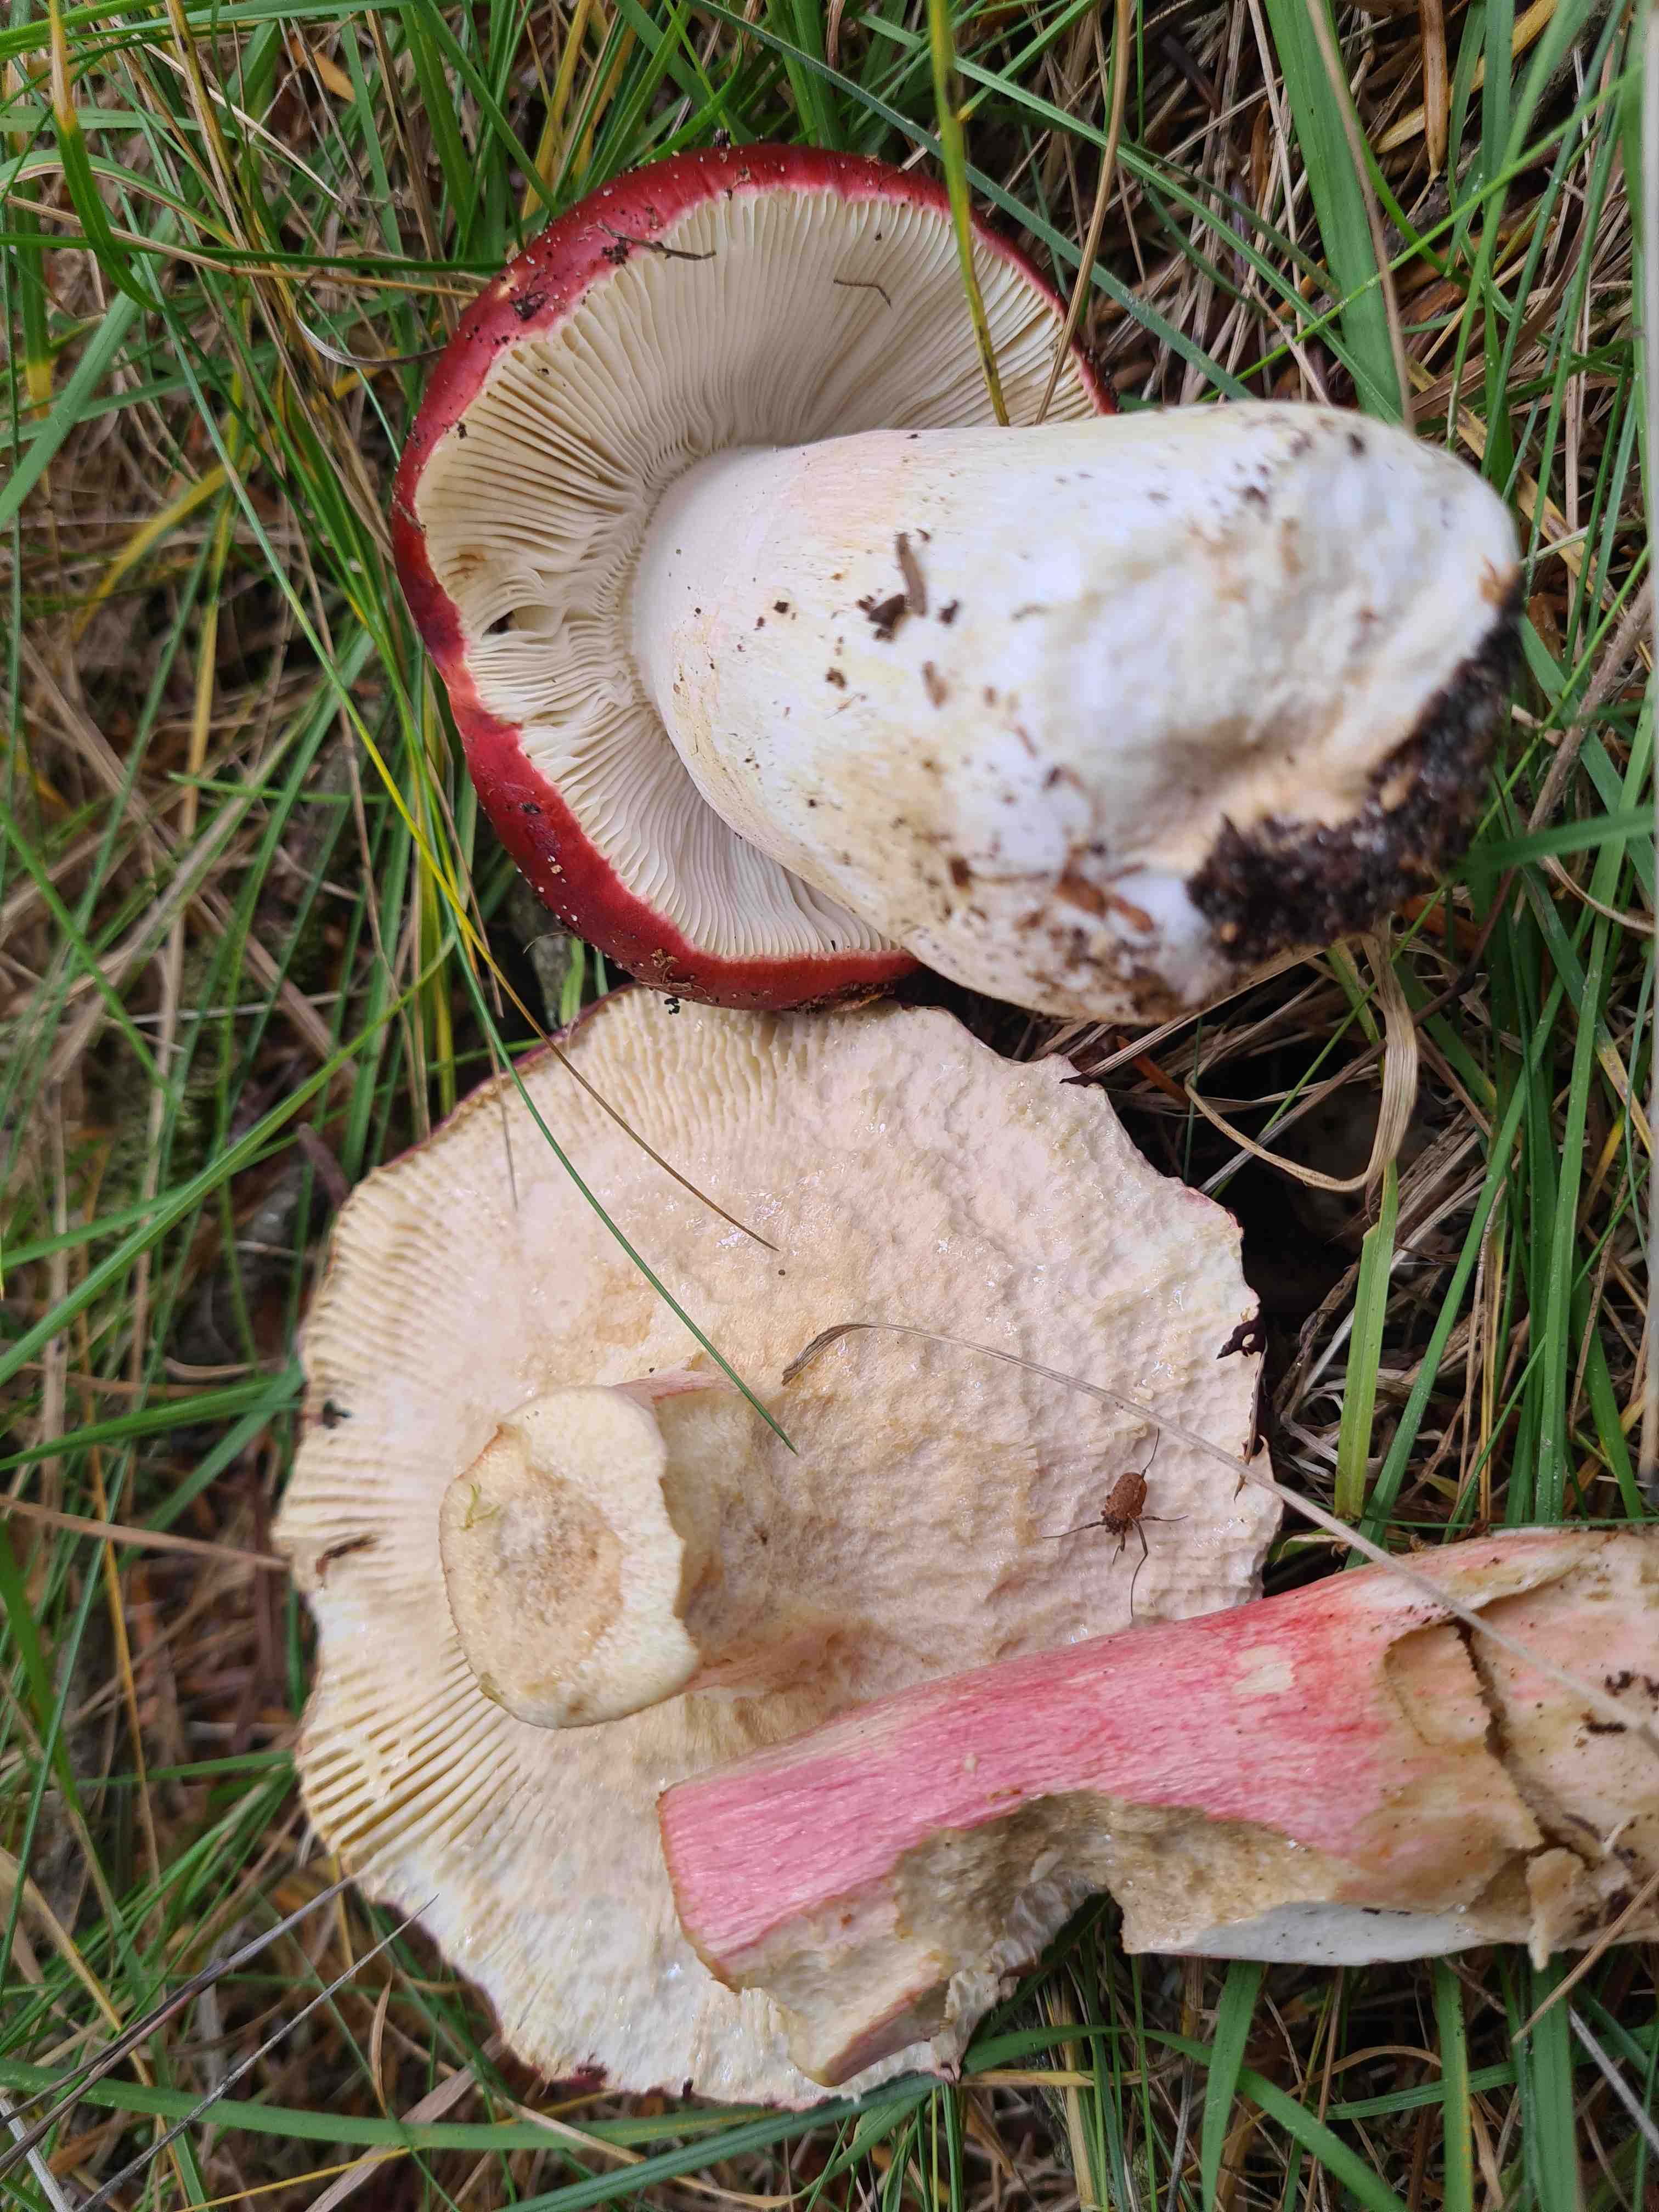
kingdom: Fungi
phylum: Basidiomycota
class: Agaricomycetes
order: Russulales
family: Russulaceae
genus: Russula
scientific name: Russula xerampelina
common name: hummer-skørhat
